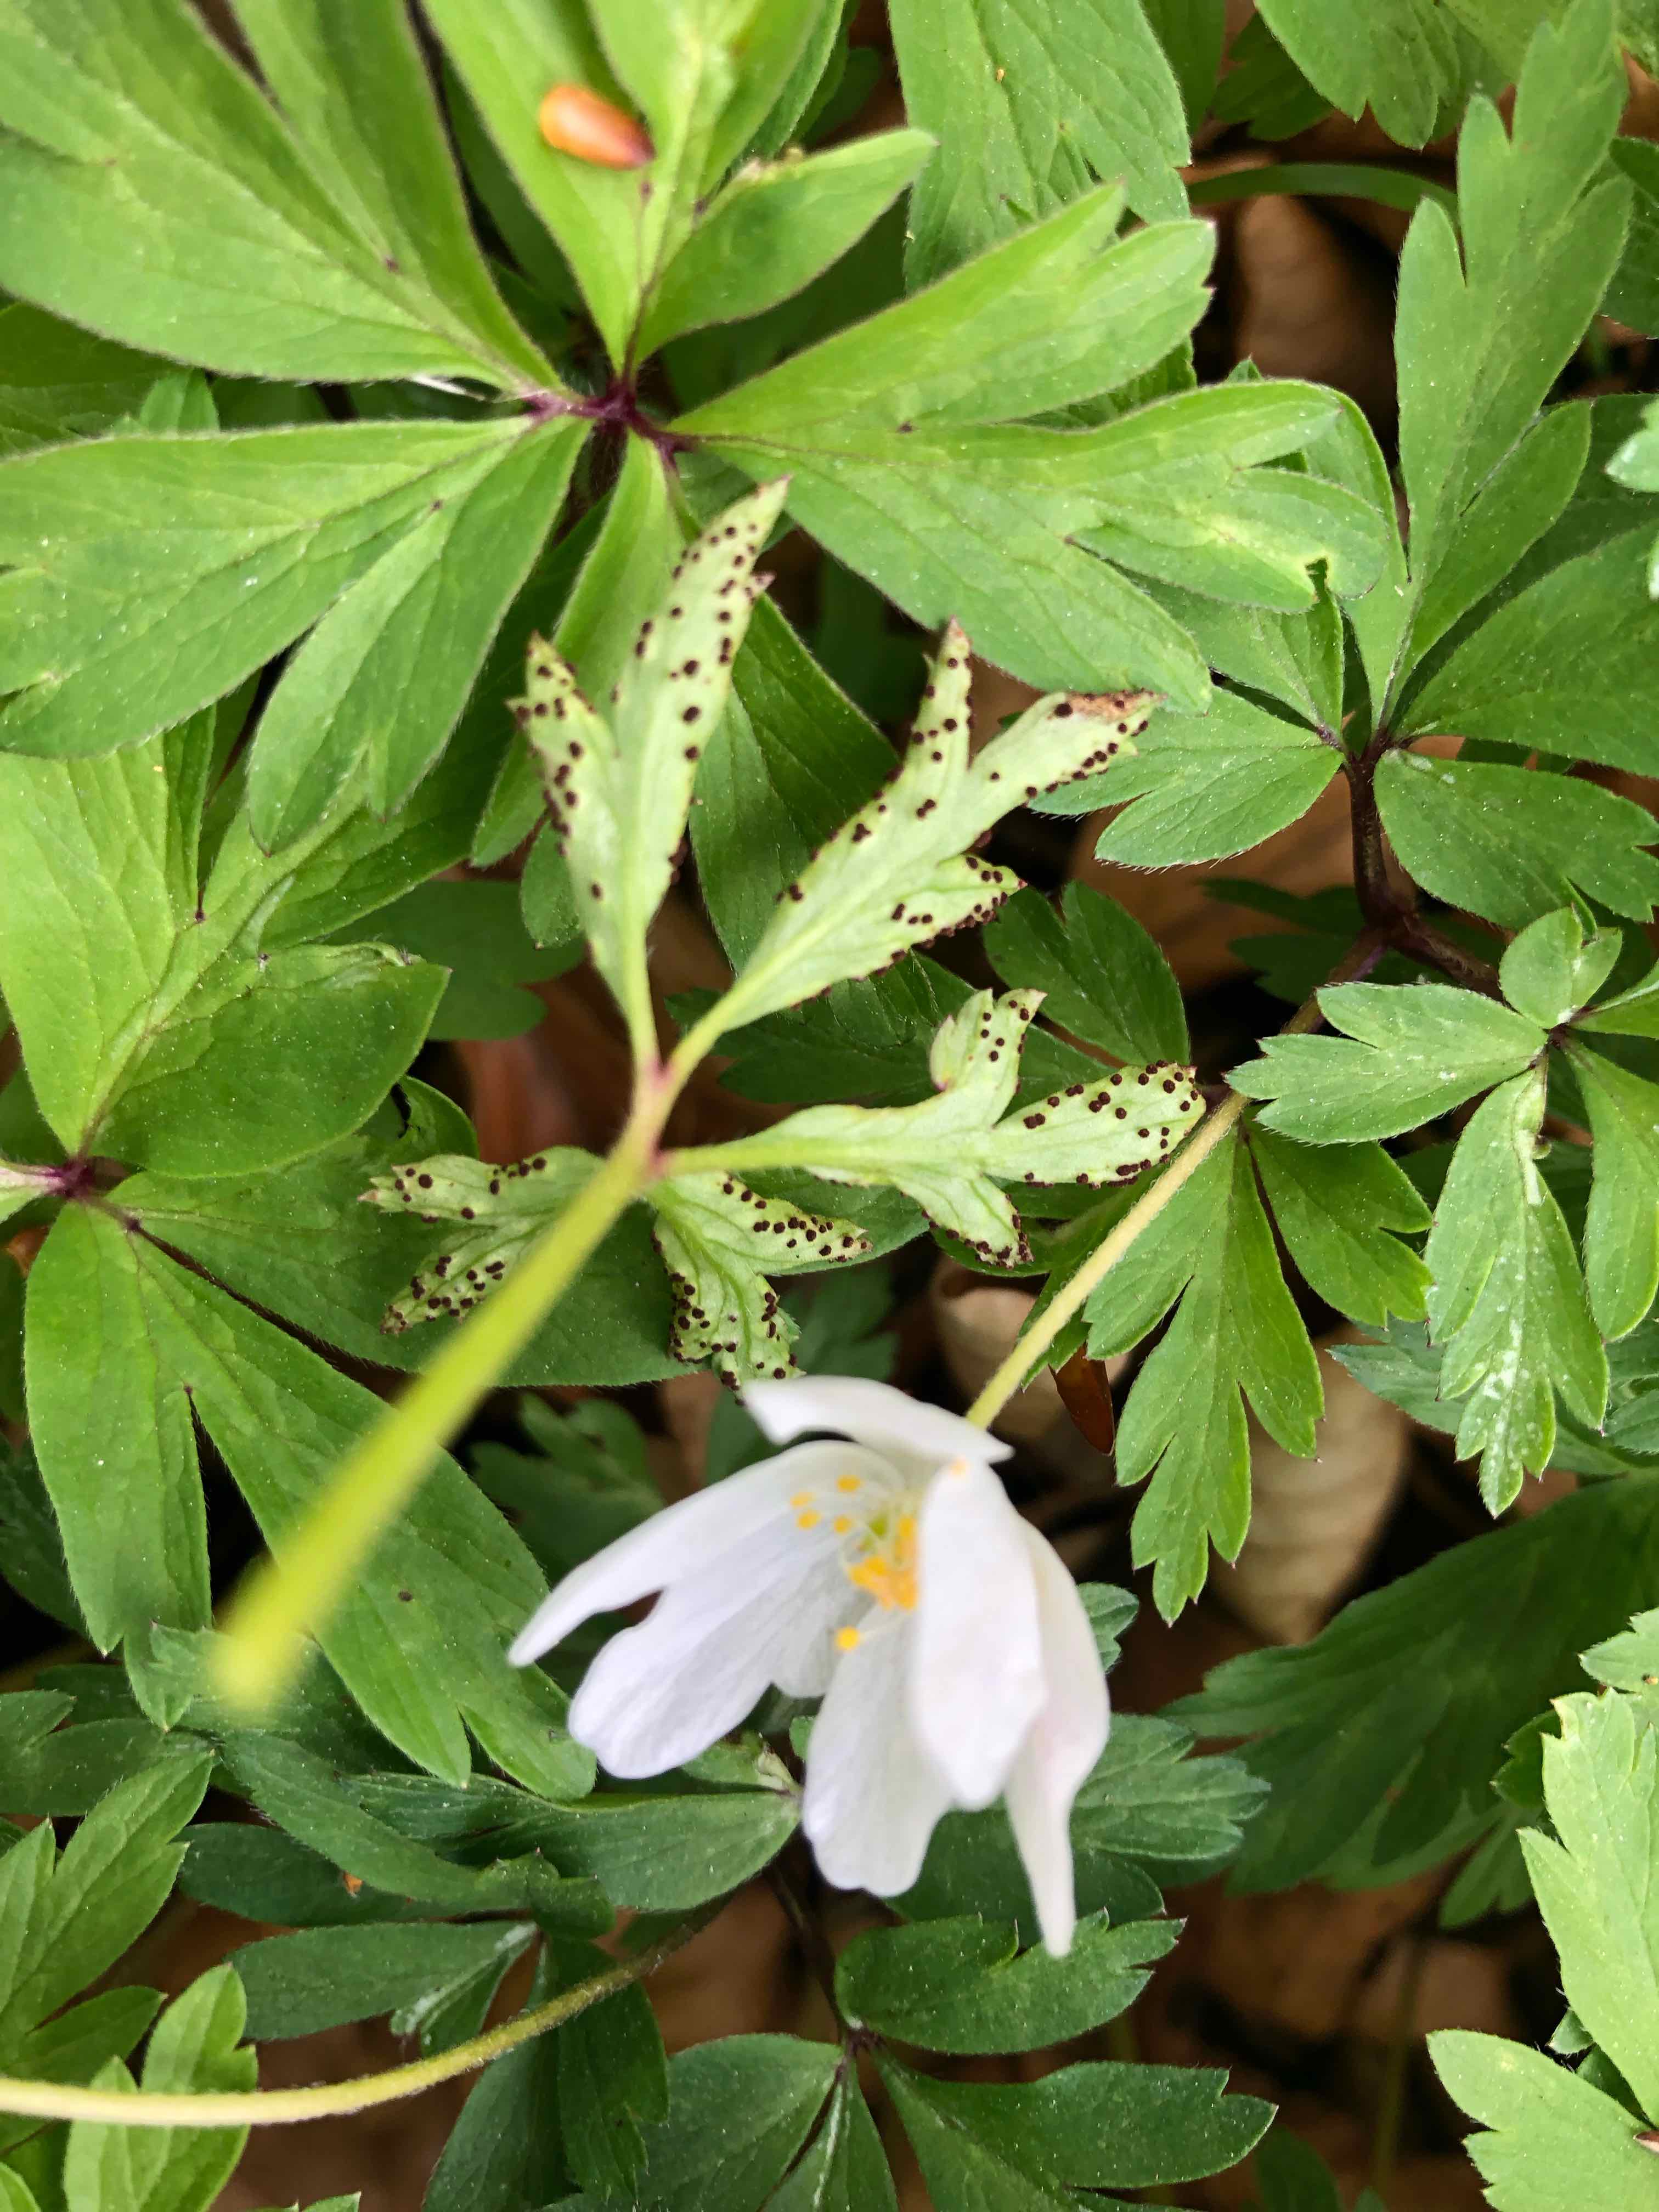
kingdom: Fungi
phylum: Basidiomycota
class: Pucciniomycetes
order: Pucciniales
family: Tranzscheliaceae
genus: Tranzschelia
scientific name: Tranzschelia anemones
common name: anemone-knæksporerust
